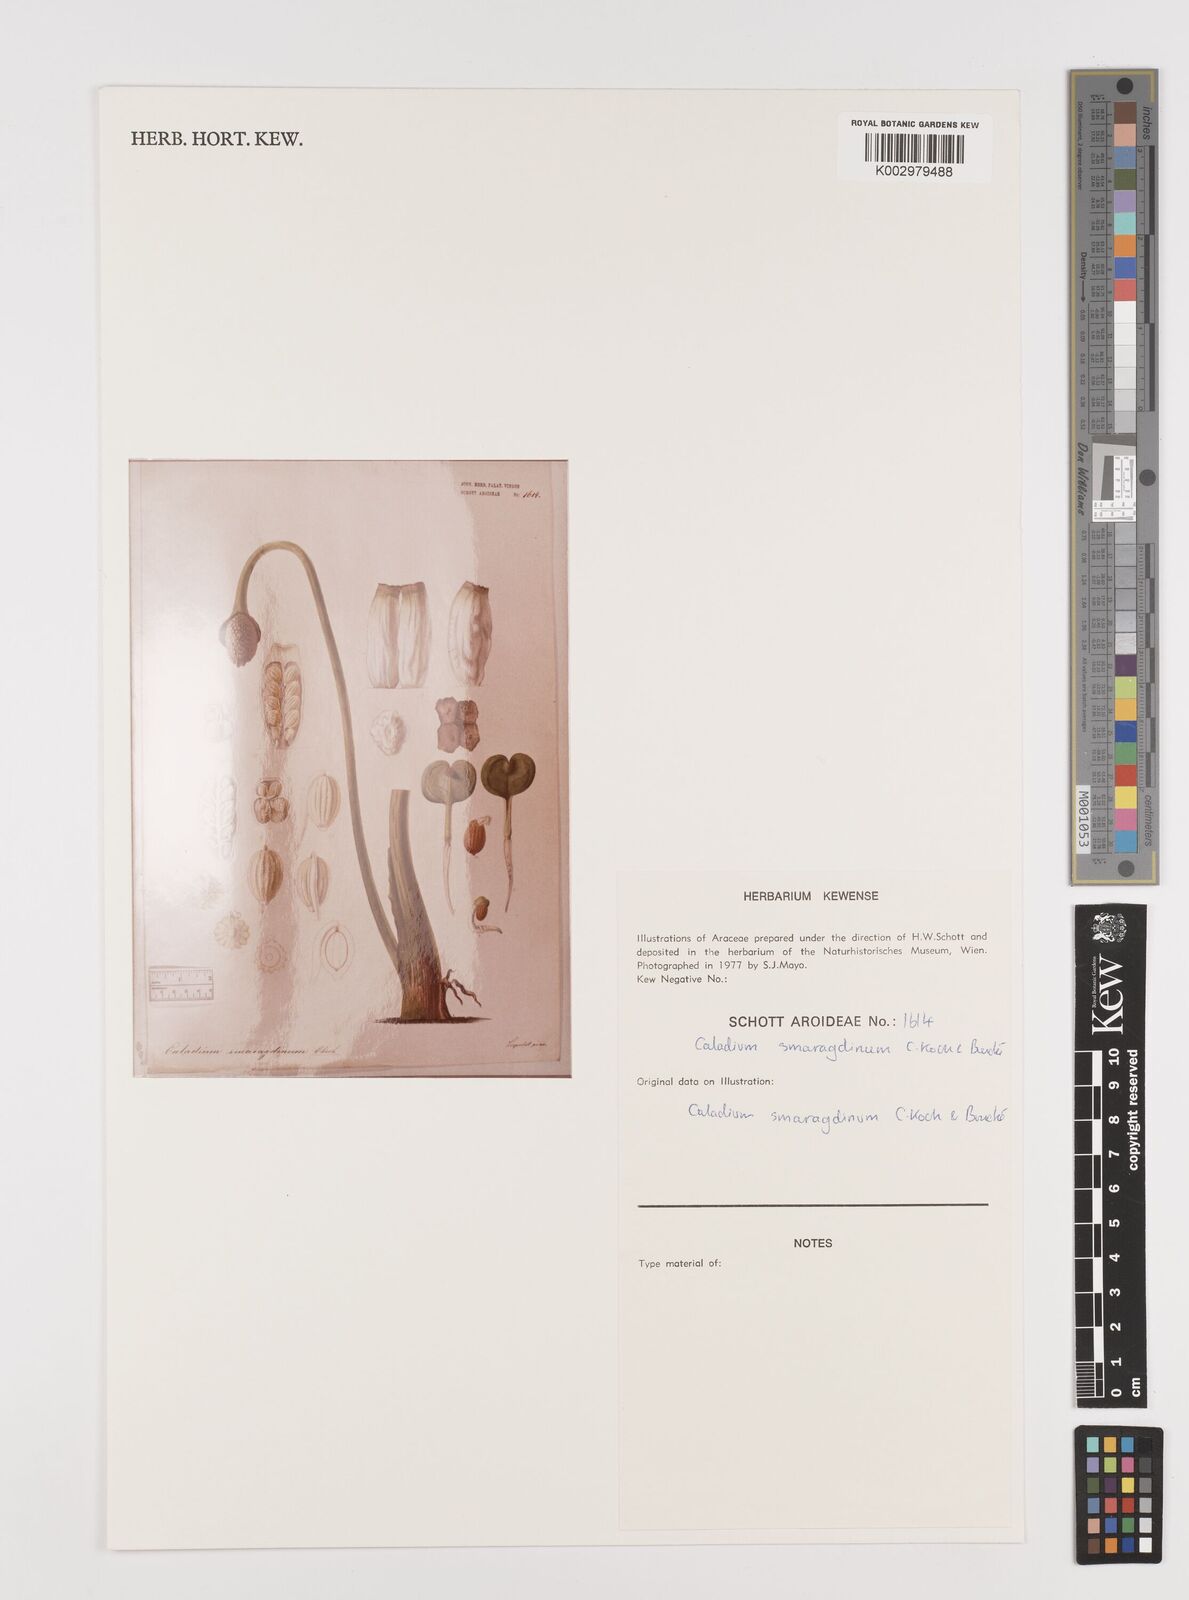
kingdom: Plantae
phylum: Tracheophyta
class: Liliopsida
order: Alismatales
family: Araceae
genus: Caladium
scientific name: Caladium schomburgkii
